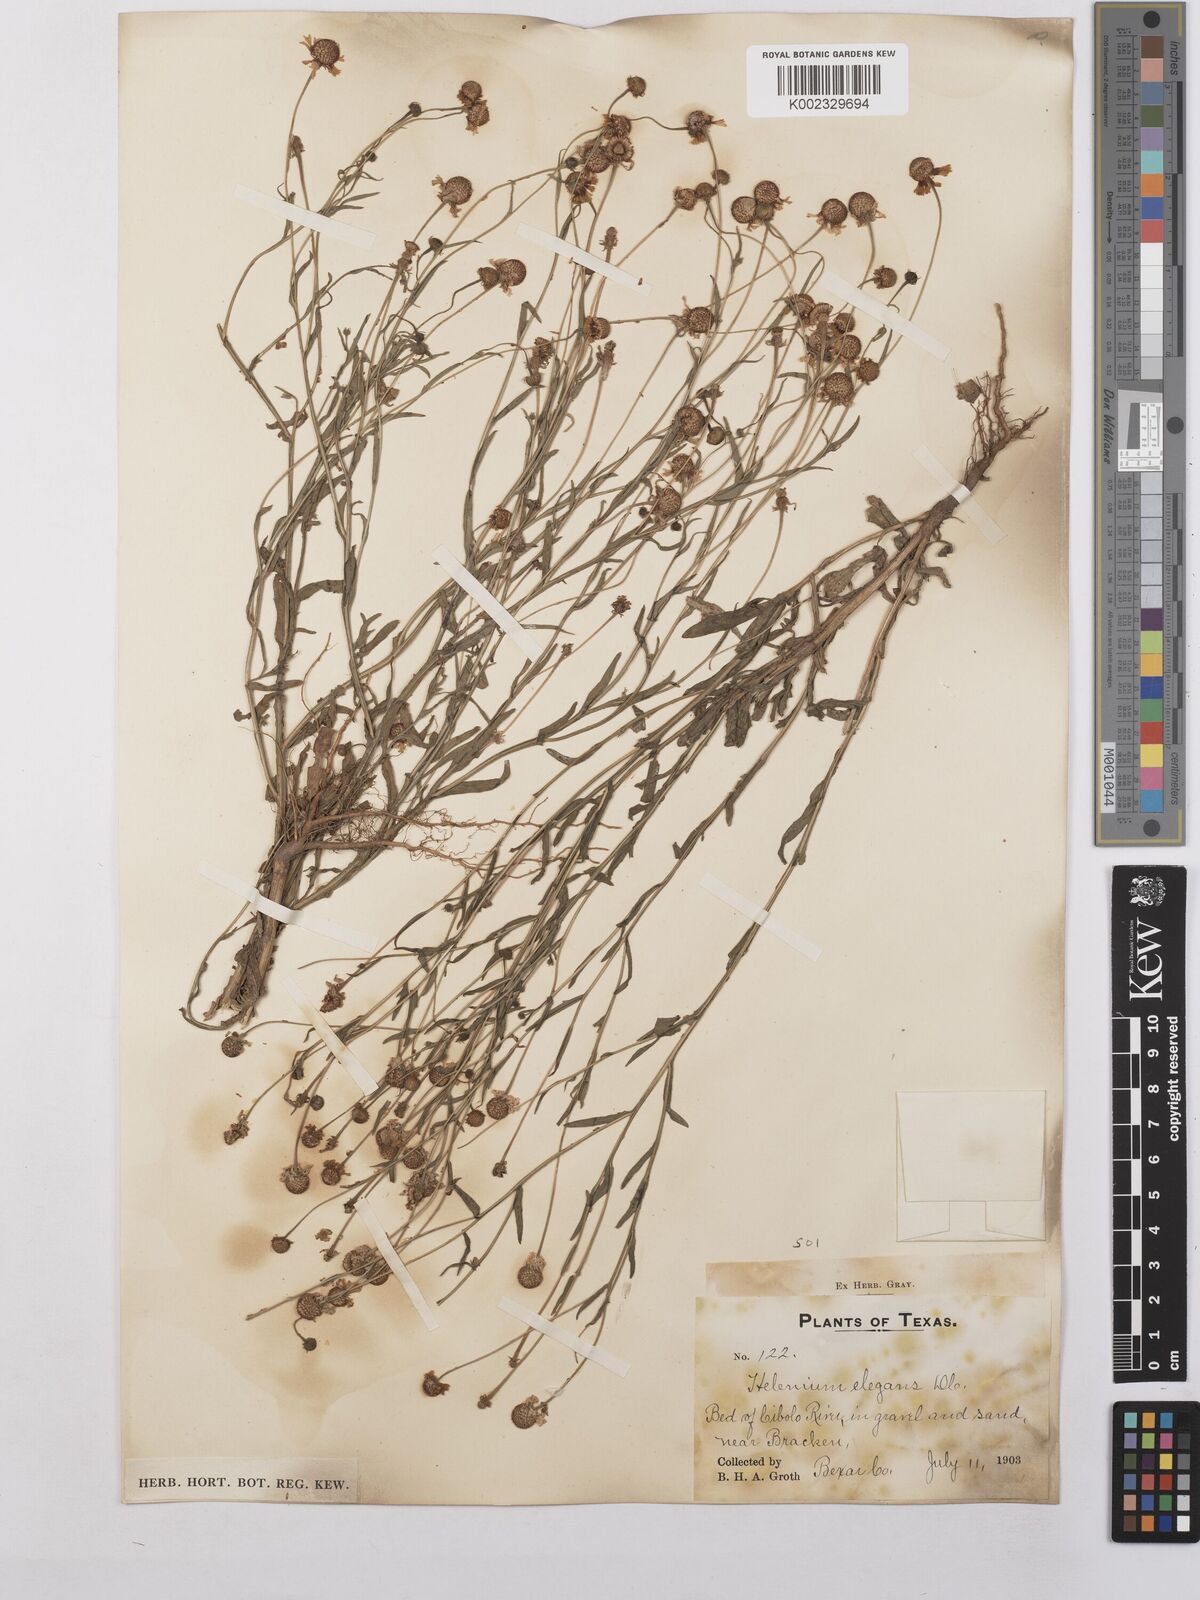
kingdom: Plantae
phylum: Tracheophyta
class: Magnoliopsida
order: Asterales
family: Asteraceae
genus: Helenium
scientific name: Helenium elegans
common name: Pretty sneezeweed
